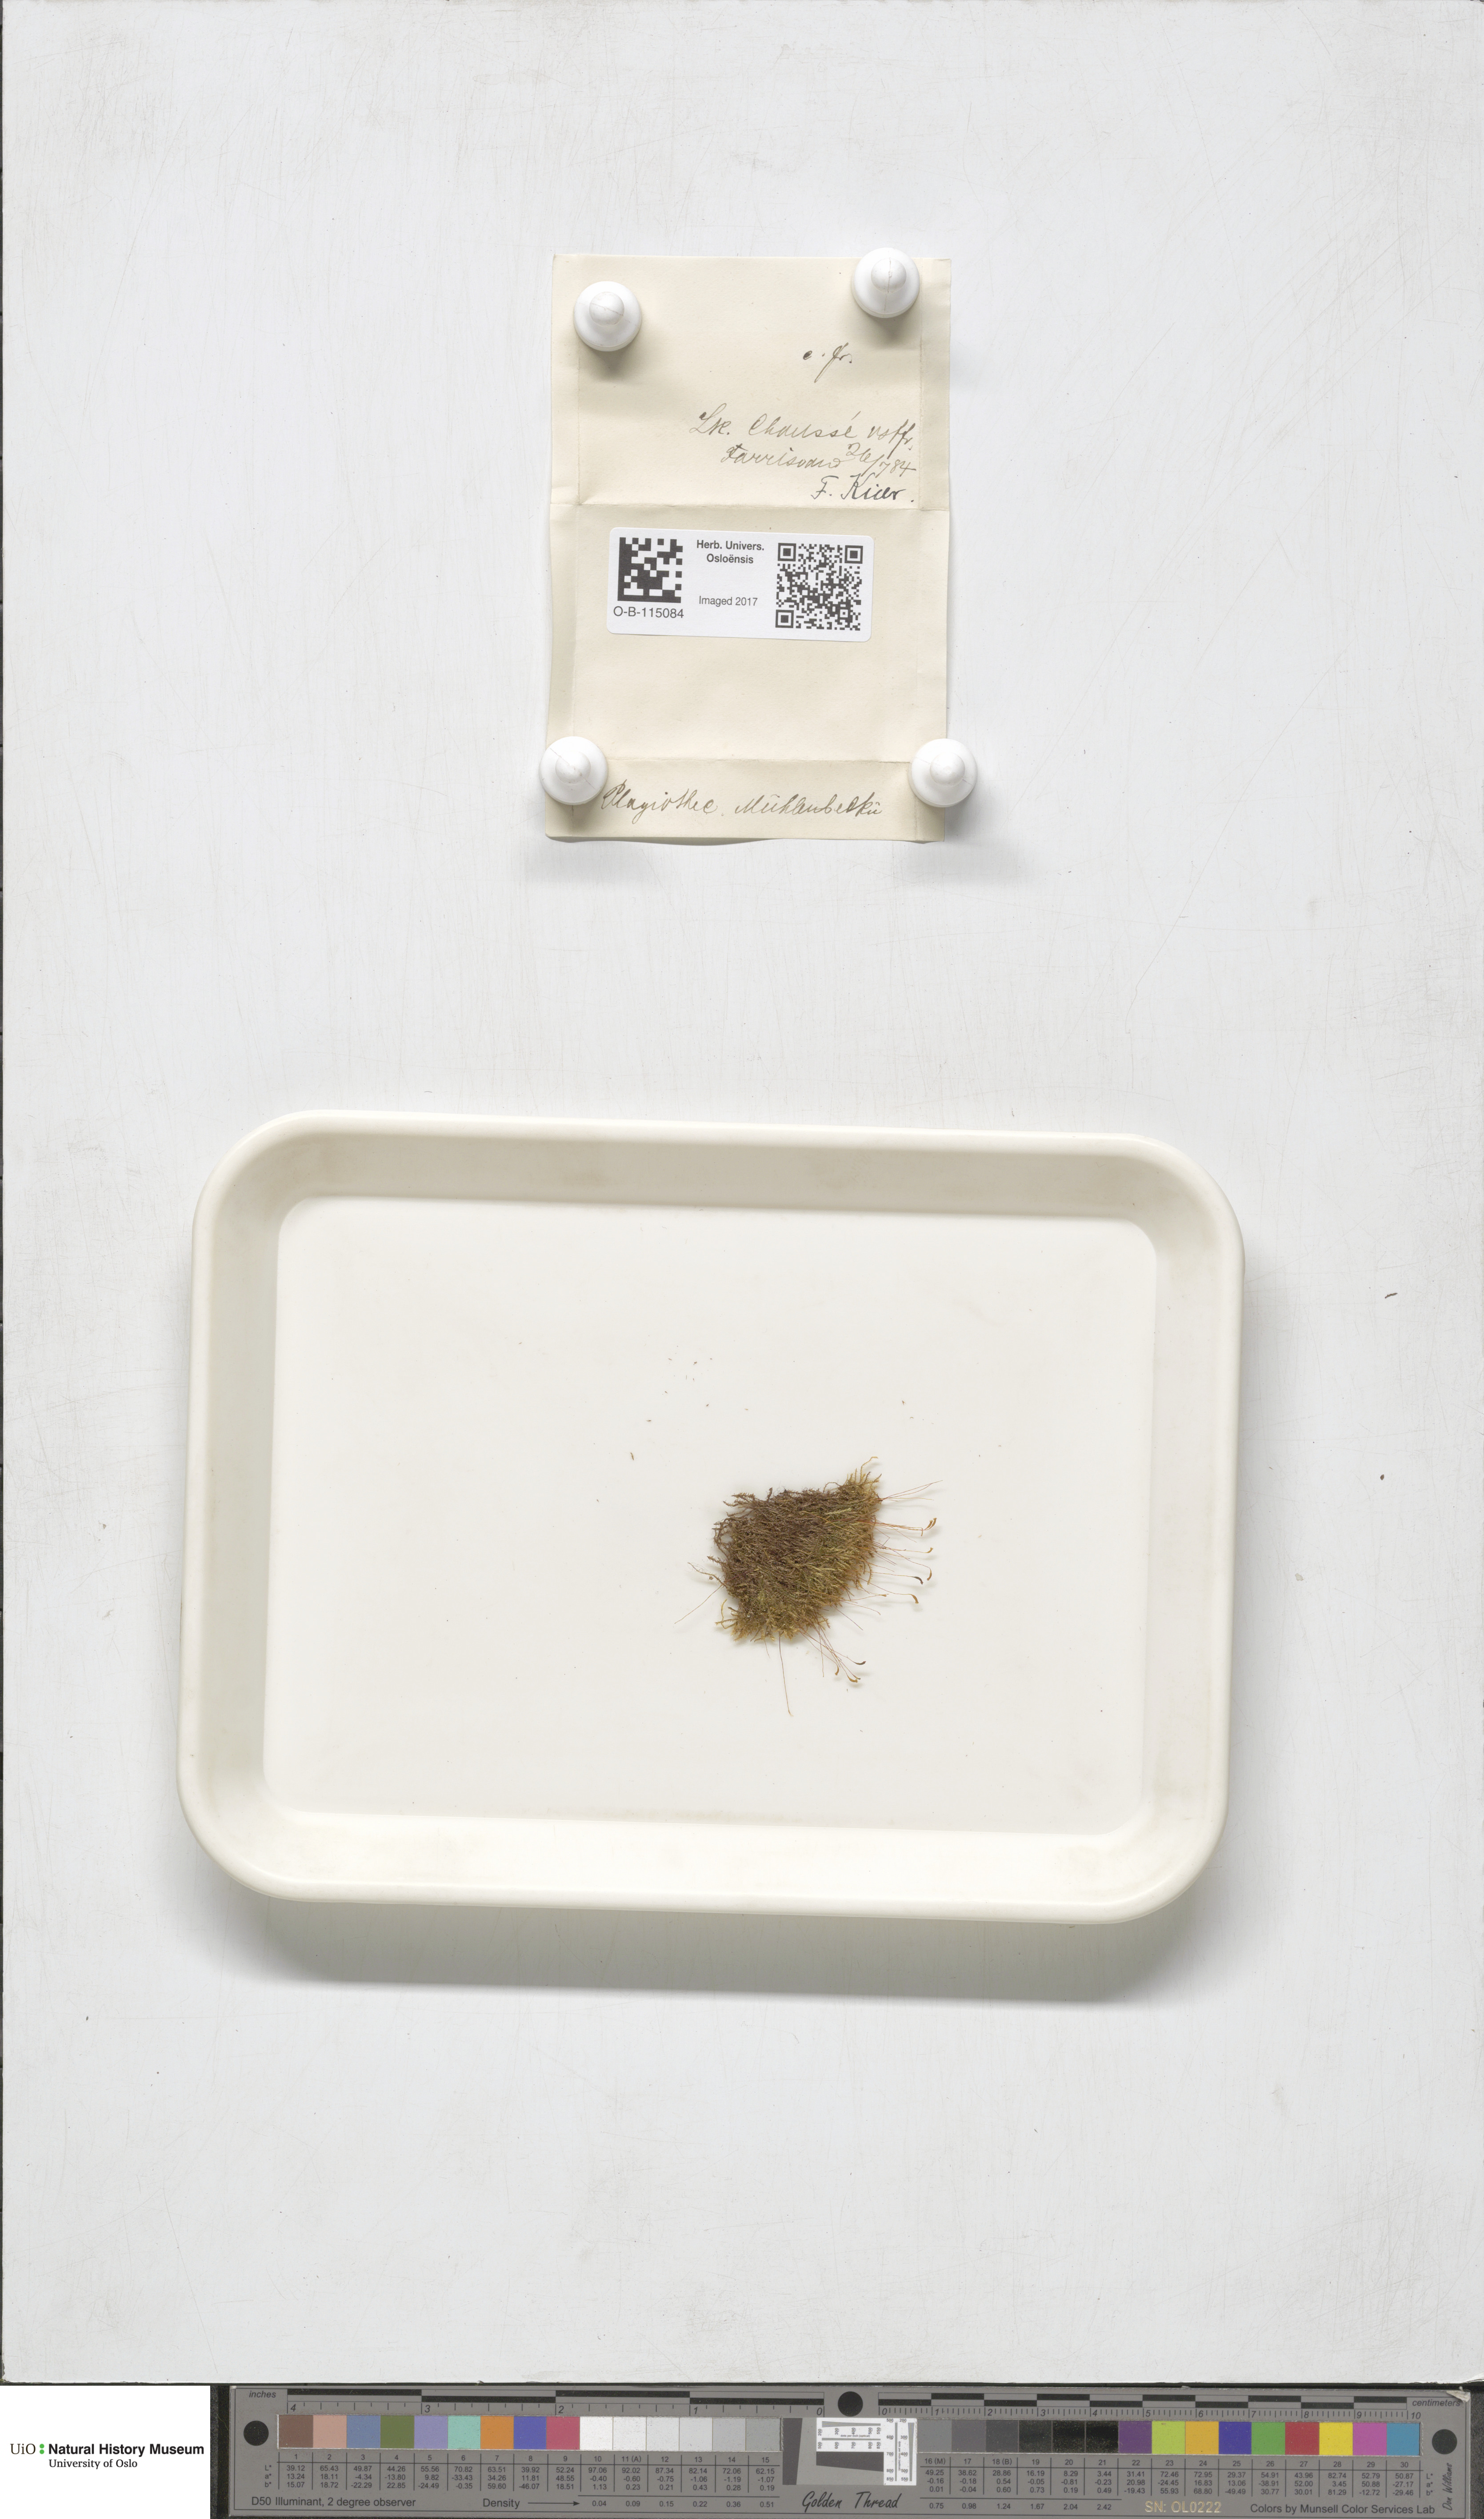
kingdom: Plantae
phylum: Bryophyta
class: Bryopsida
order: Hypnales
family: Plagiotheciaceae
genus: Herzogiella
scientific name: Herzogiella striatella
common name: Muhlenbeck's feather-moss
